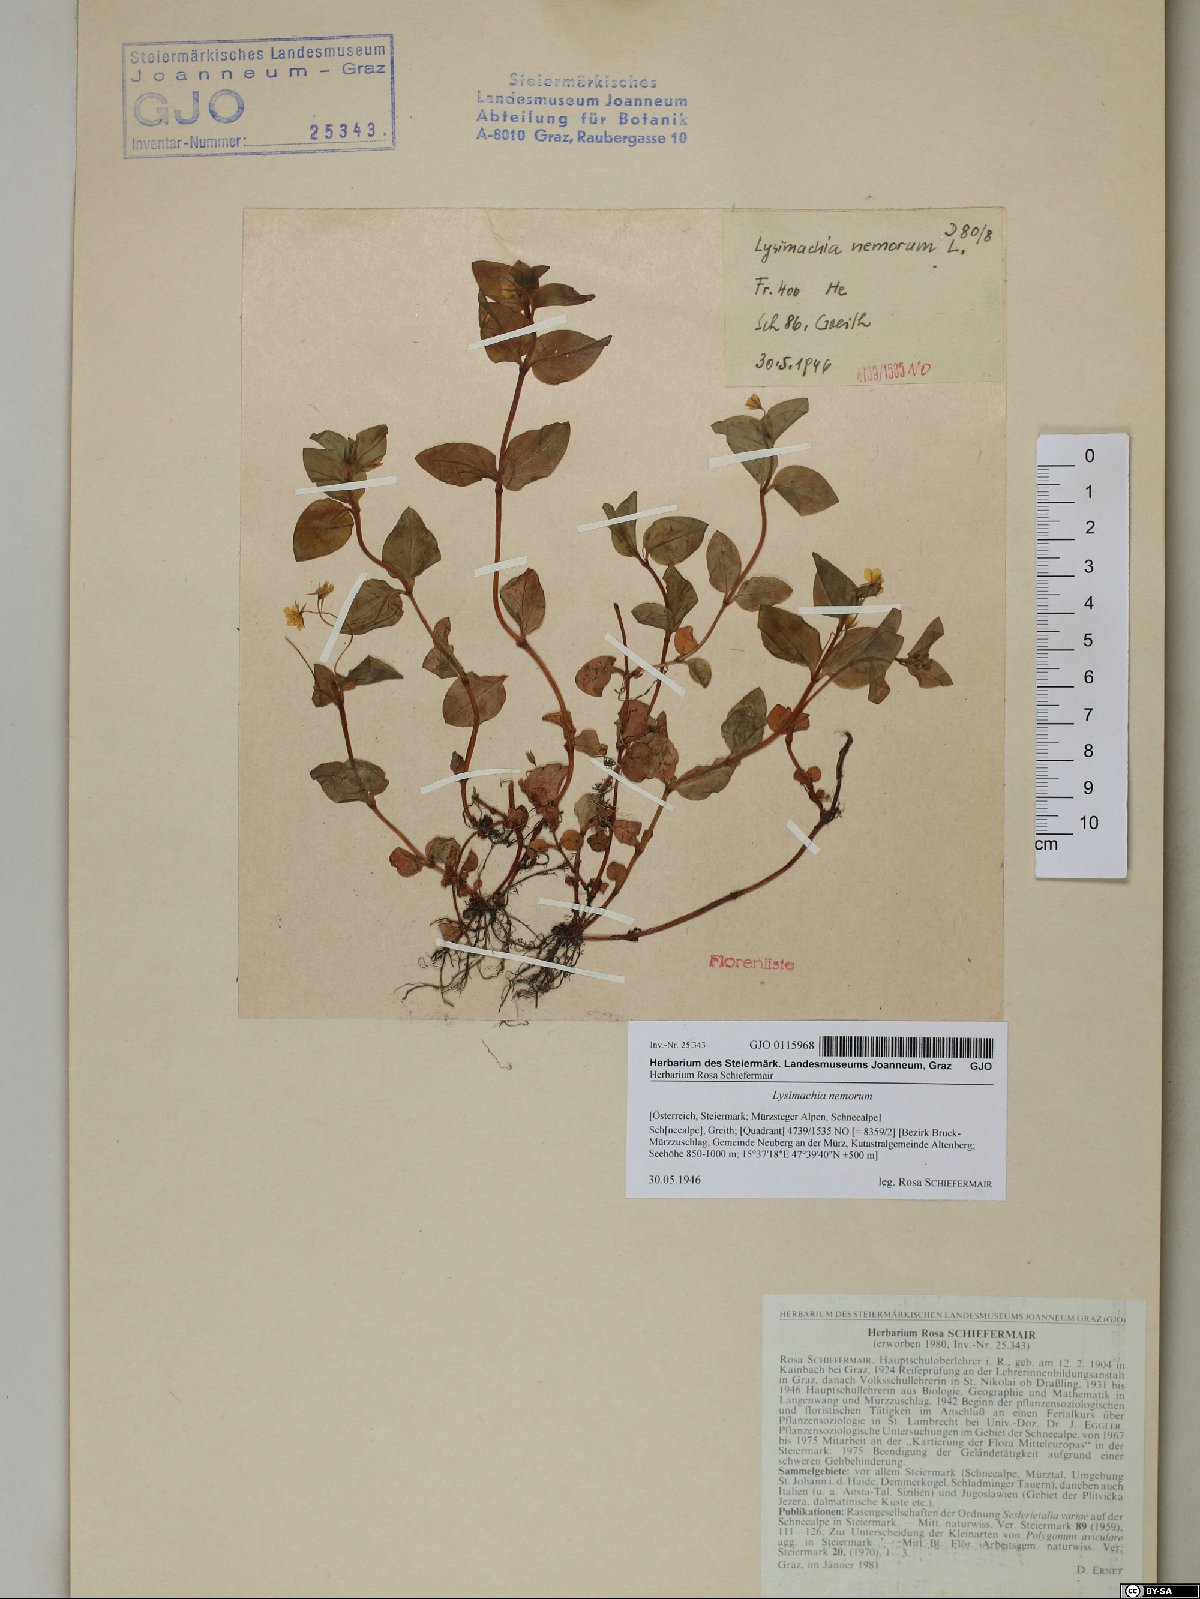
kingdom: Plantae
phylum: Tracheophyta
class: Magnoliopsida
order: Ericales
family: Primulaceae
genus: Lysimachia
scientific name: Lysimachia nemorum
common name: Yellow pimpernel
